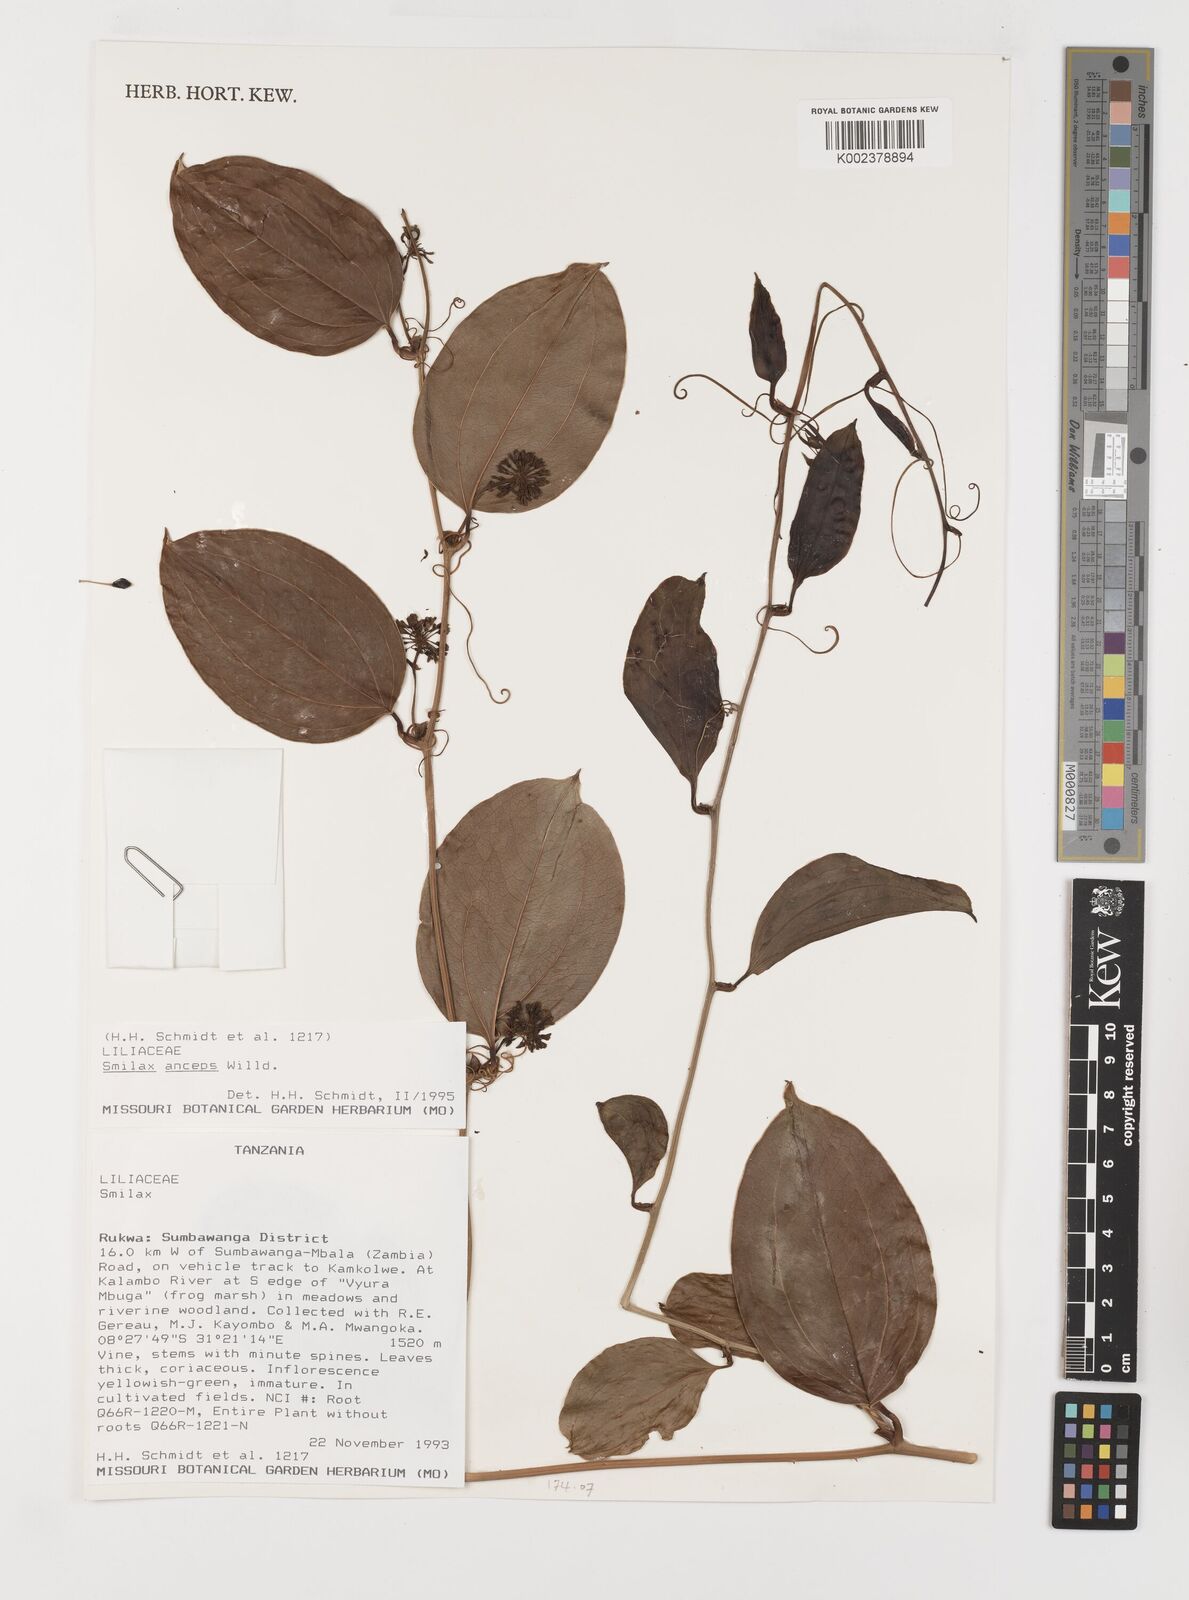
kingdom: Plantae
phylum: Tracheophyta
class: Liliopsida
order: Liliales
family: Smilacaceae
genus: Smilax
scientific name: Smilax anceps
